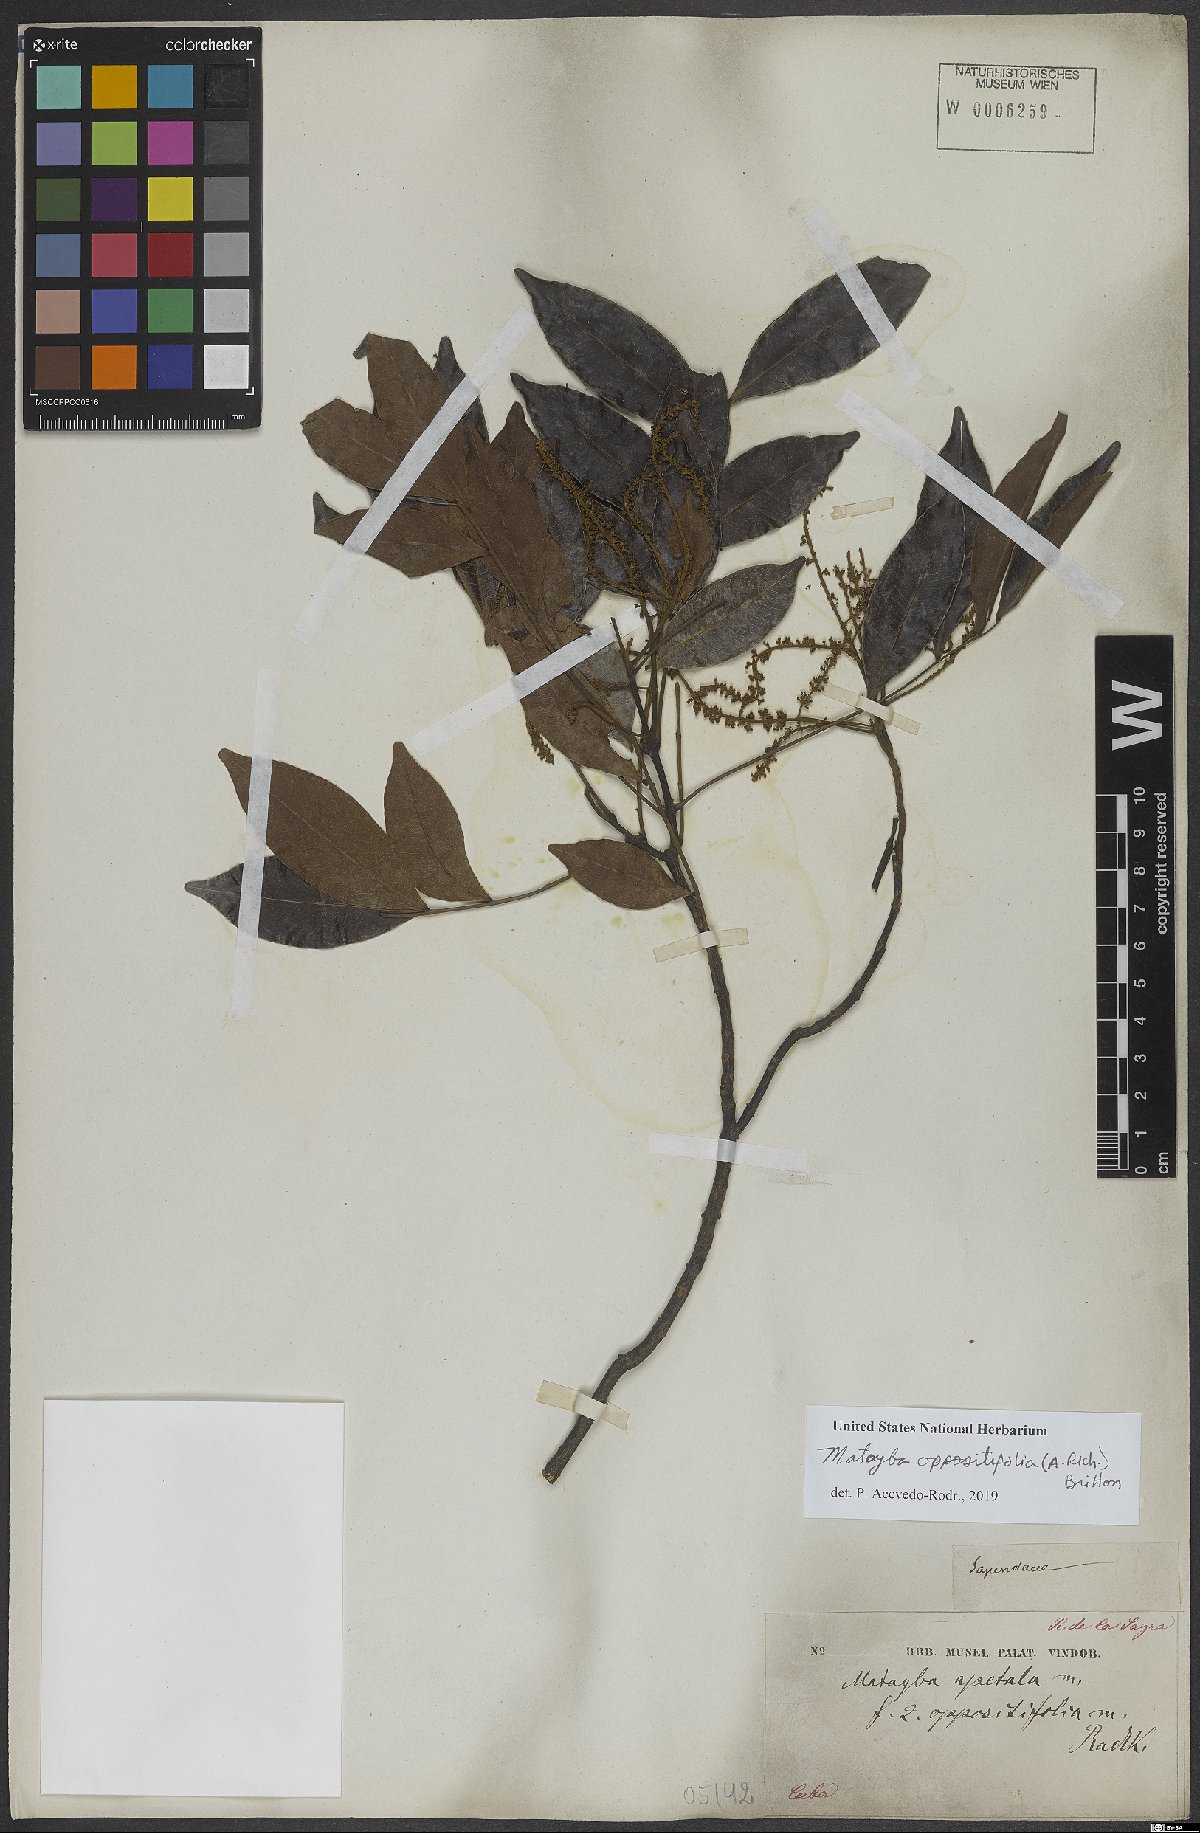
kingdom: Plantae
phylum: Tracheophyta
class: Magnoliopsida
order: Sapindales
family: Sapindaceae
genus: Matayba
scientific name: Matayba oppositifolia
